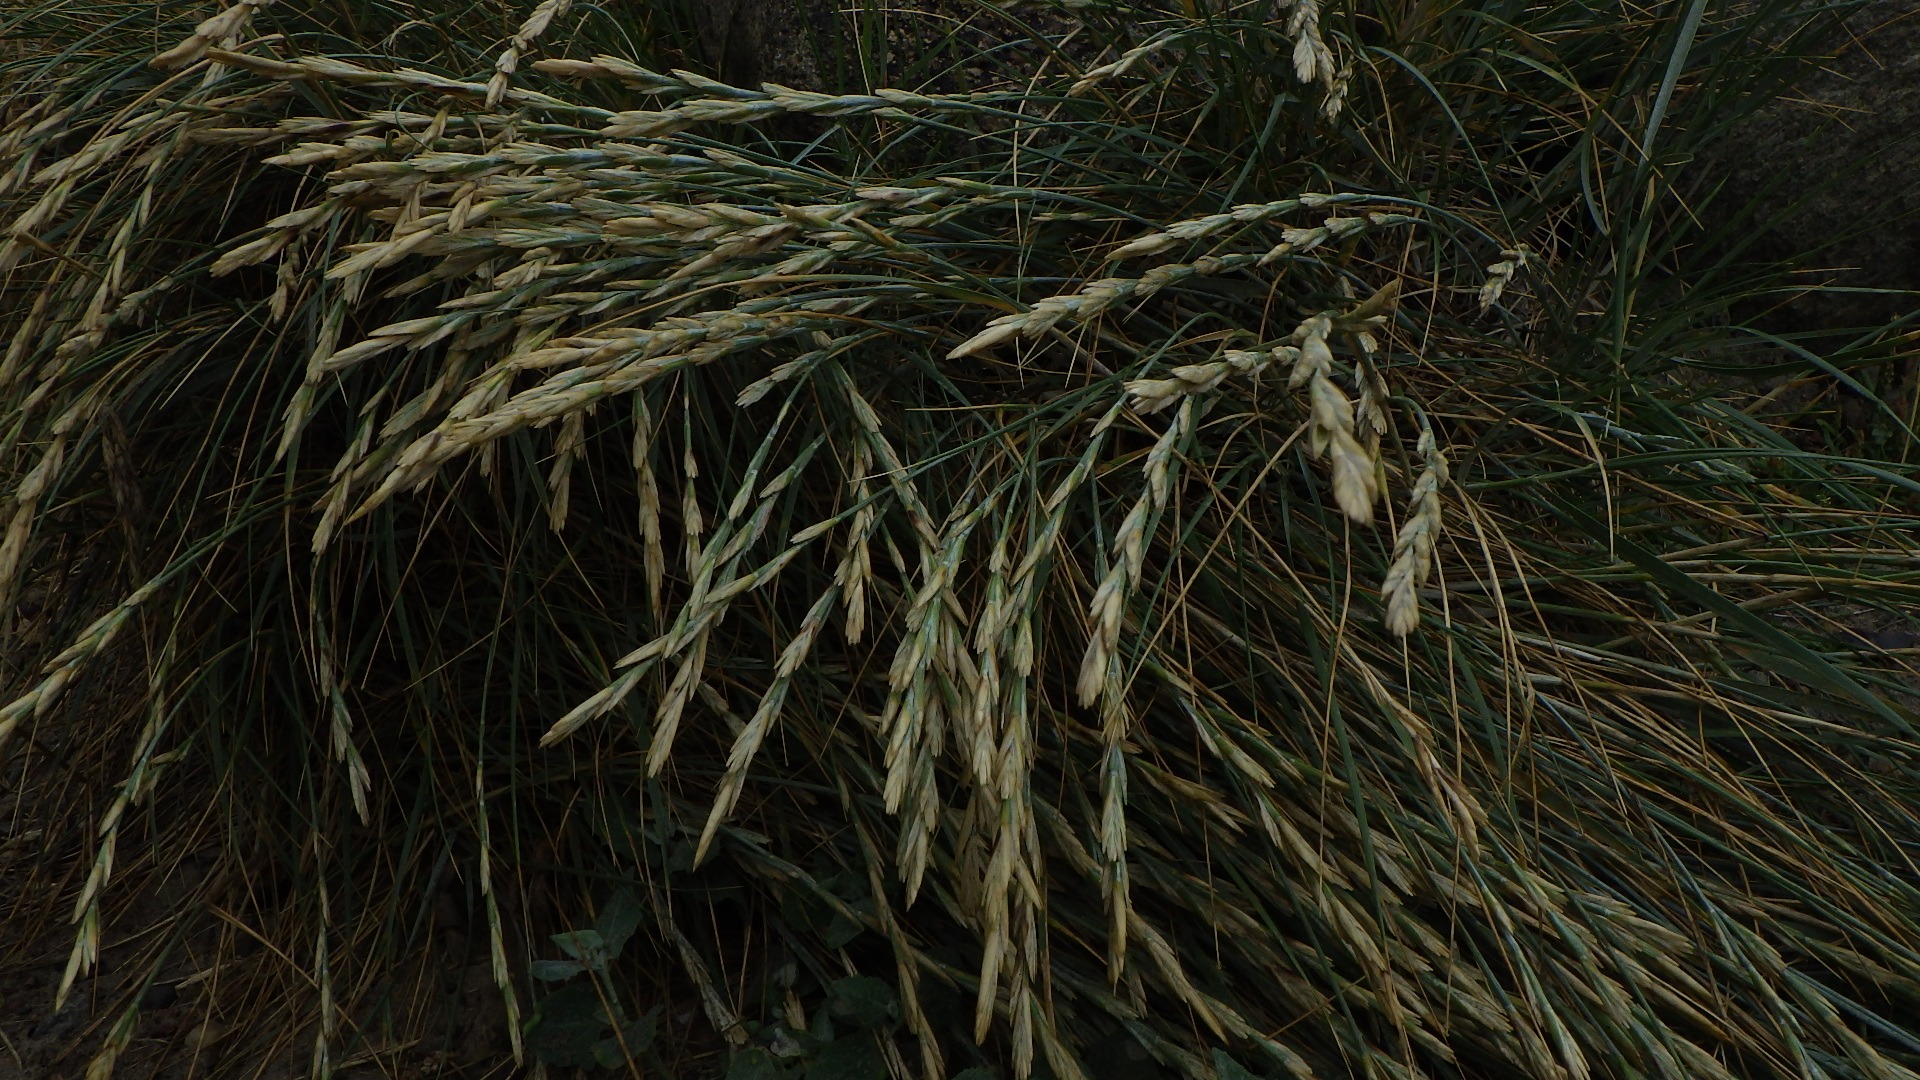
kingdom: Plantae
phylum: Tracheophyta
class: Liliopsida
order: Poales
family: Poaceae
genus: Thinopyrum
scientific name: Thinopyrum junceum
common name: Strand-kvik
